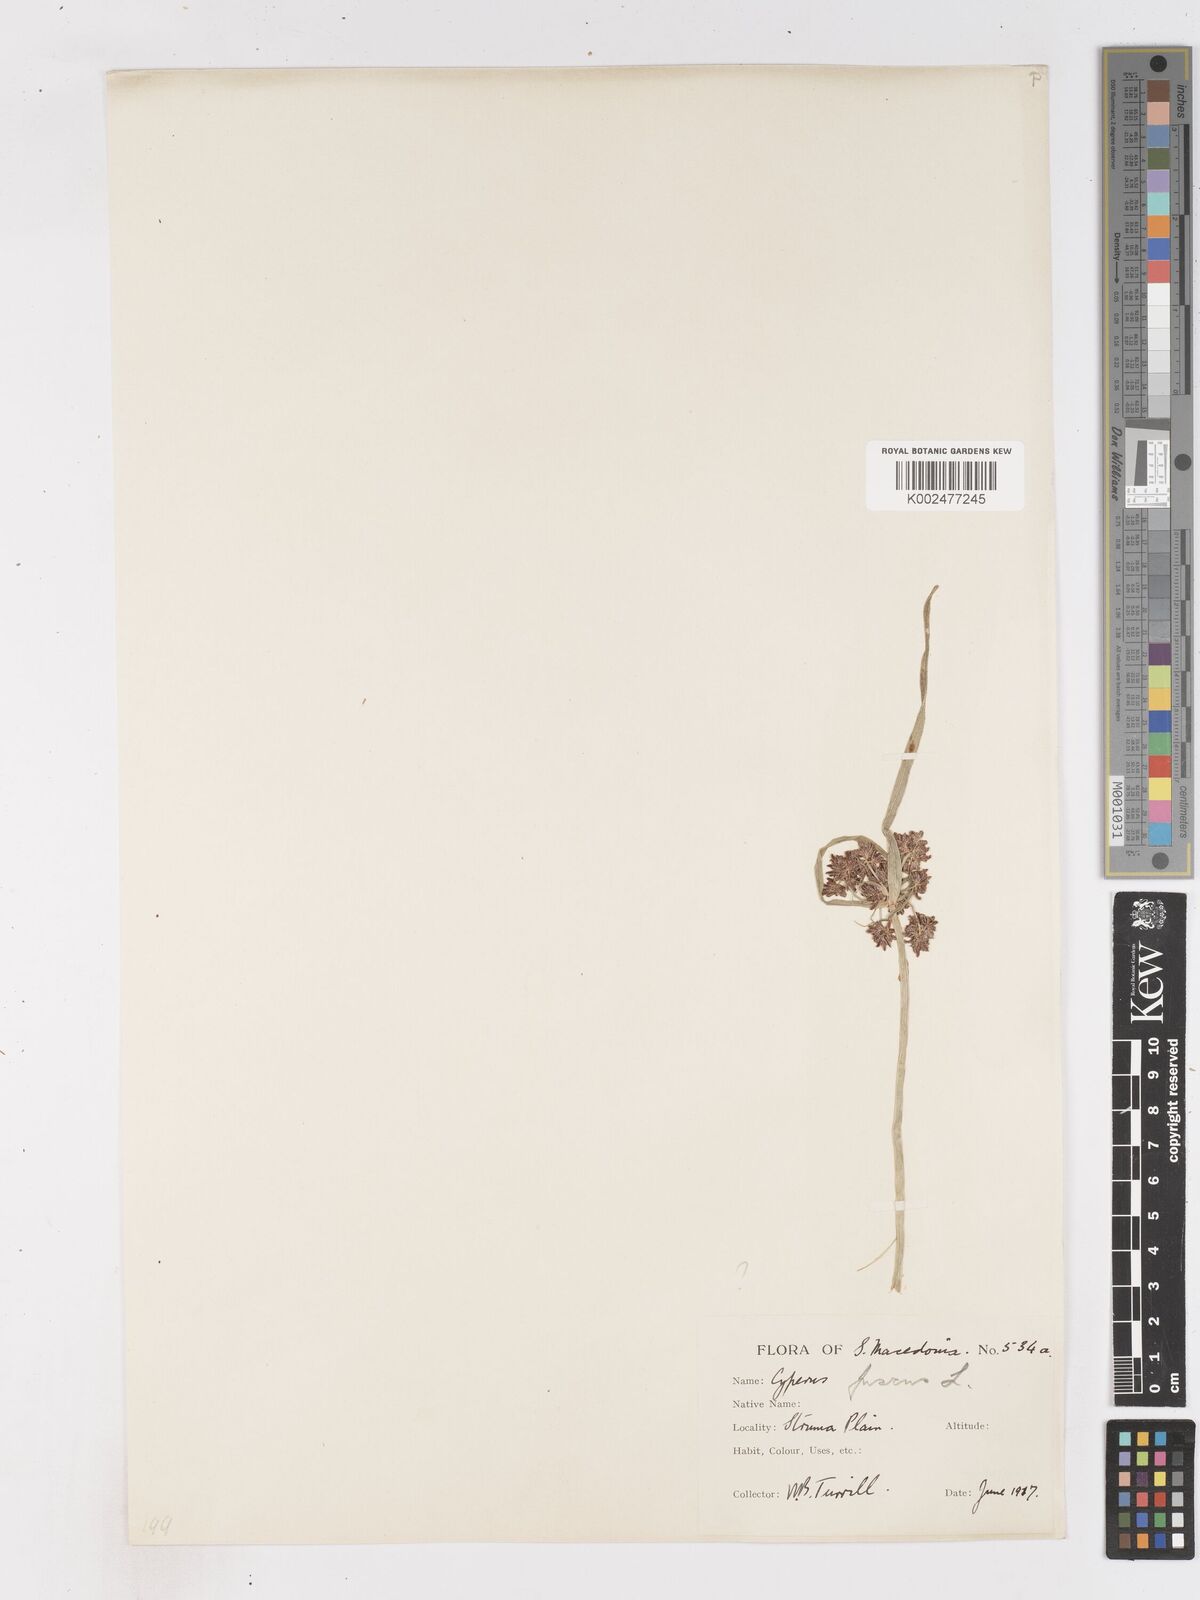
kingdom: Plantae
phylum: Tracheophyta
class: Liliopsida
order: Poales
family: Cyperaceae
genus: Cyperus
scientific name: Cyperus fuscus
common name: Brown galingale
